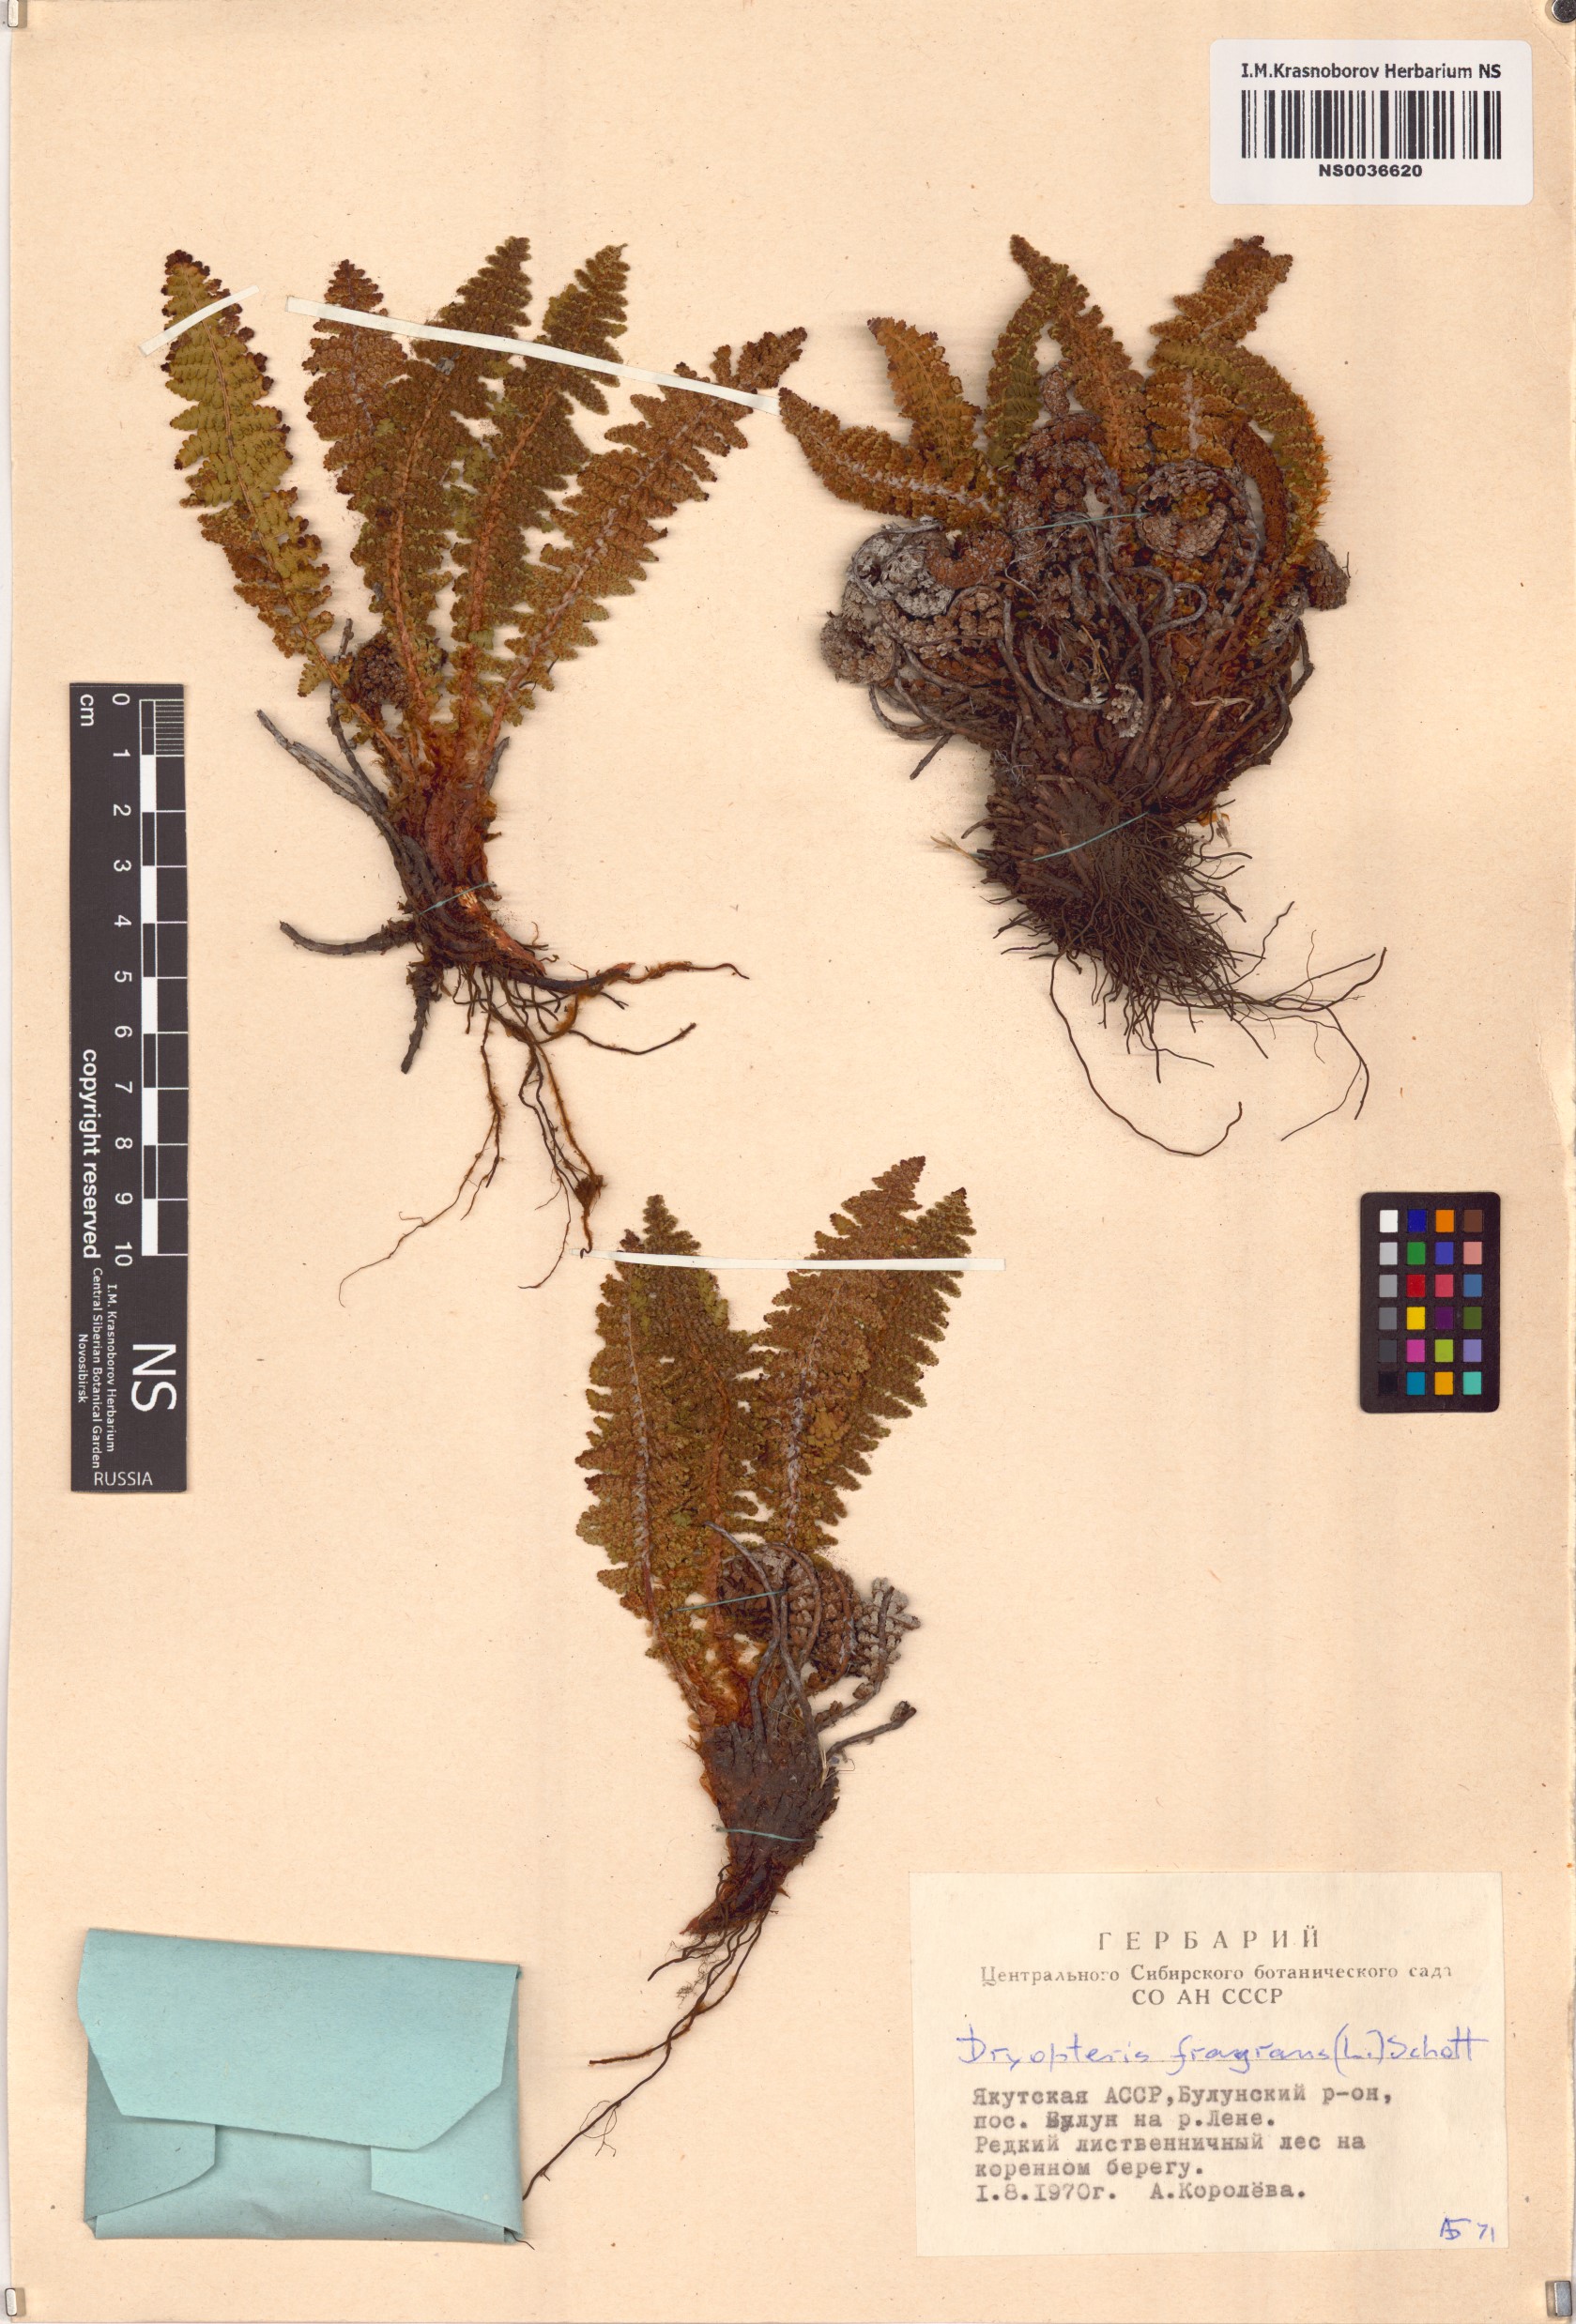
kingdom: Plantae
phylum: Tracheophyta
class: Polypodiopsida
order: Polypodiales
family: Dryopteridaceae
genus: Dryopteris
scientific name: Dryopteris fragrans
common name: Fragrant wood fern
